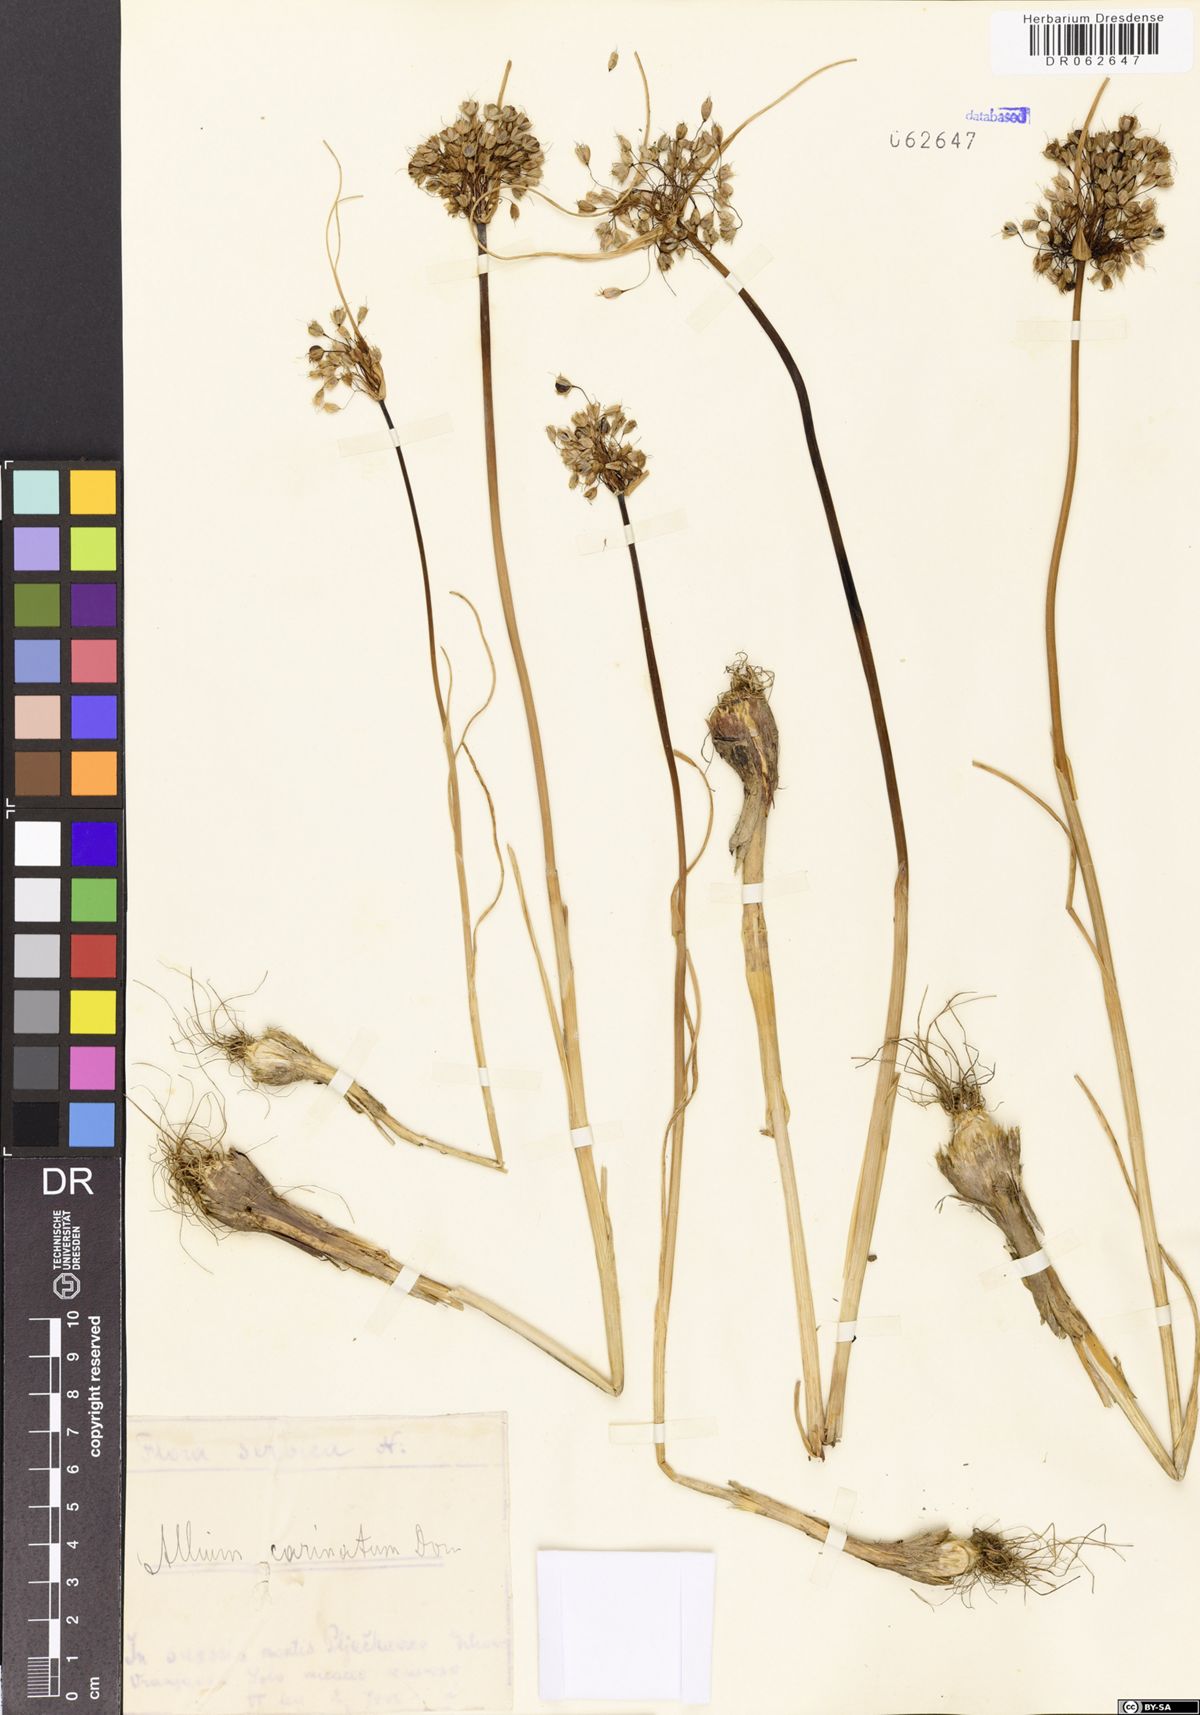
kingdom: Plantae
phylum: Tracheophyta
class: Liliopsida
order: Asparagales
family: Amaryllidaceae
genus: Allium
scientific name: Allium carinatum
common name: Keeled garlic
